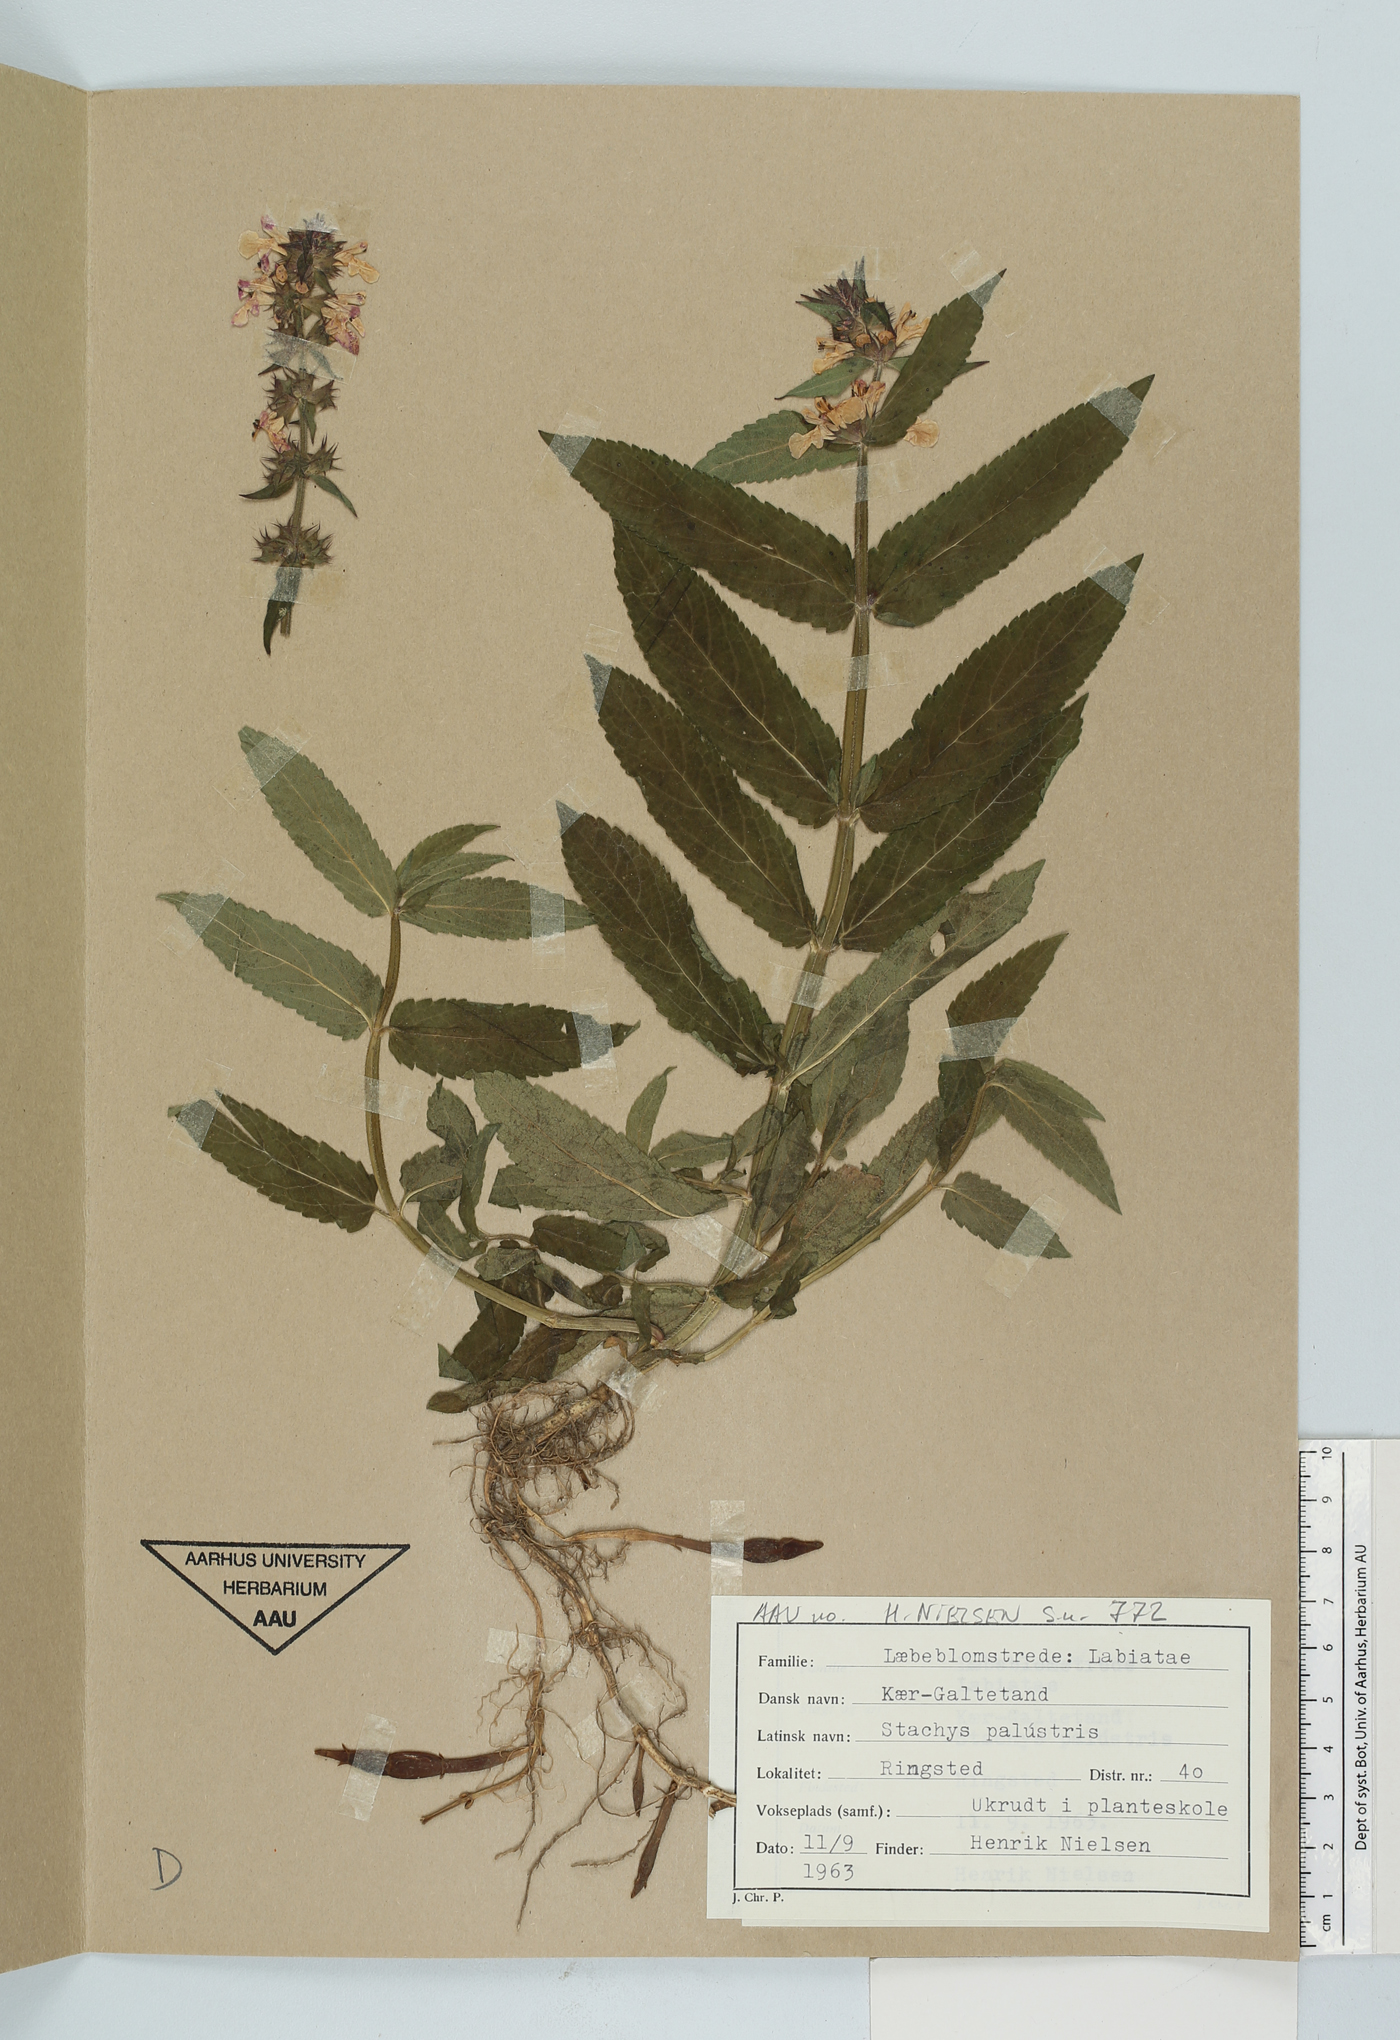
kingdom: Plantae
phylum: Tracheophyta
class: Magnoliopsida
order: Lamiales
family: Lamiaceae
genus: Stachys
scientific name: Stachys palustris
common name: Marsh woundwort
